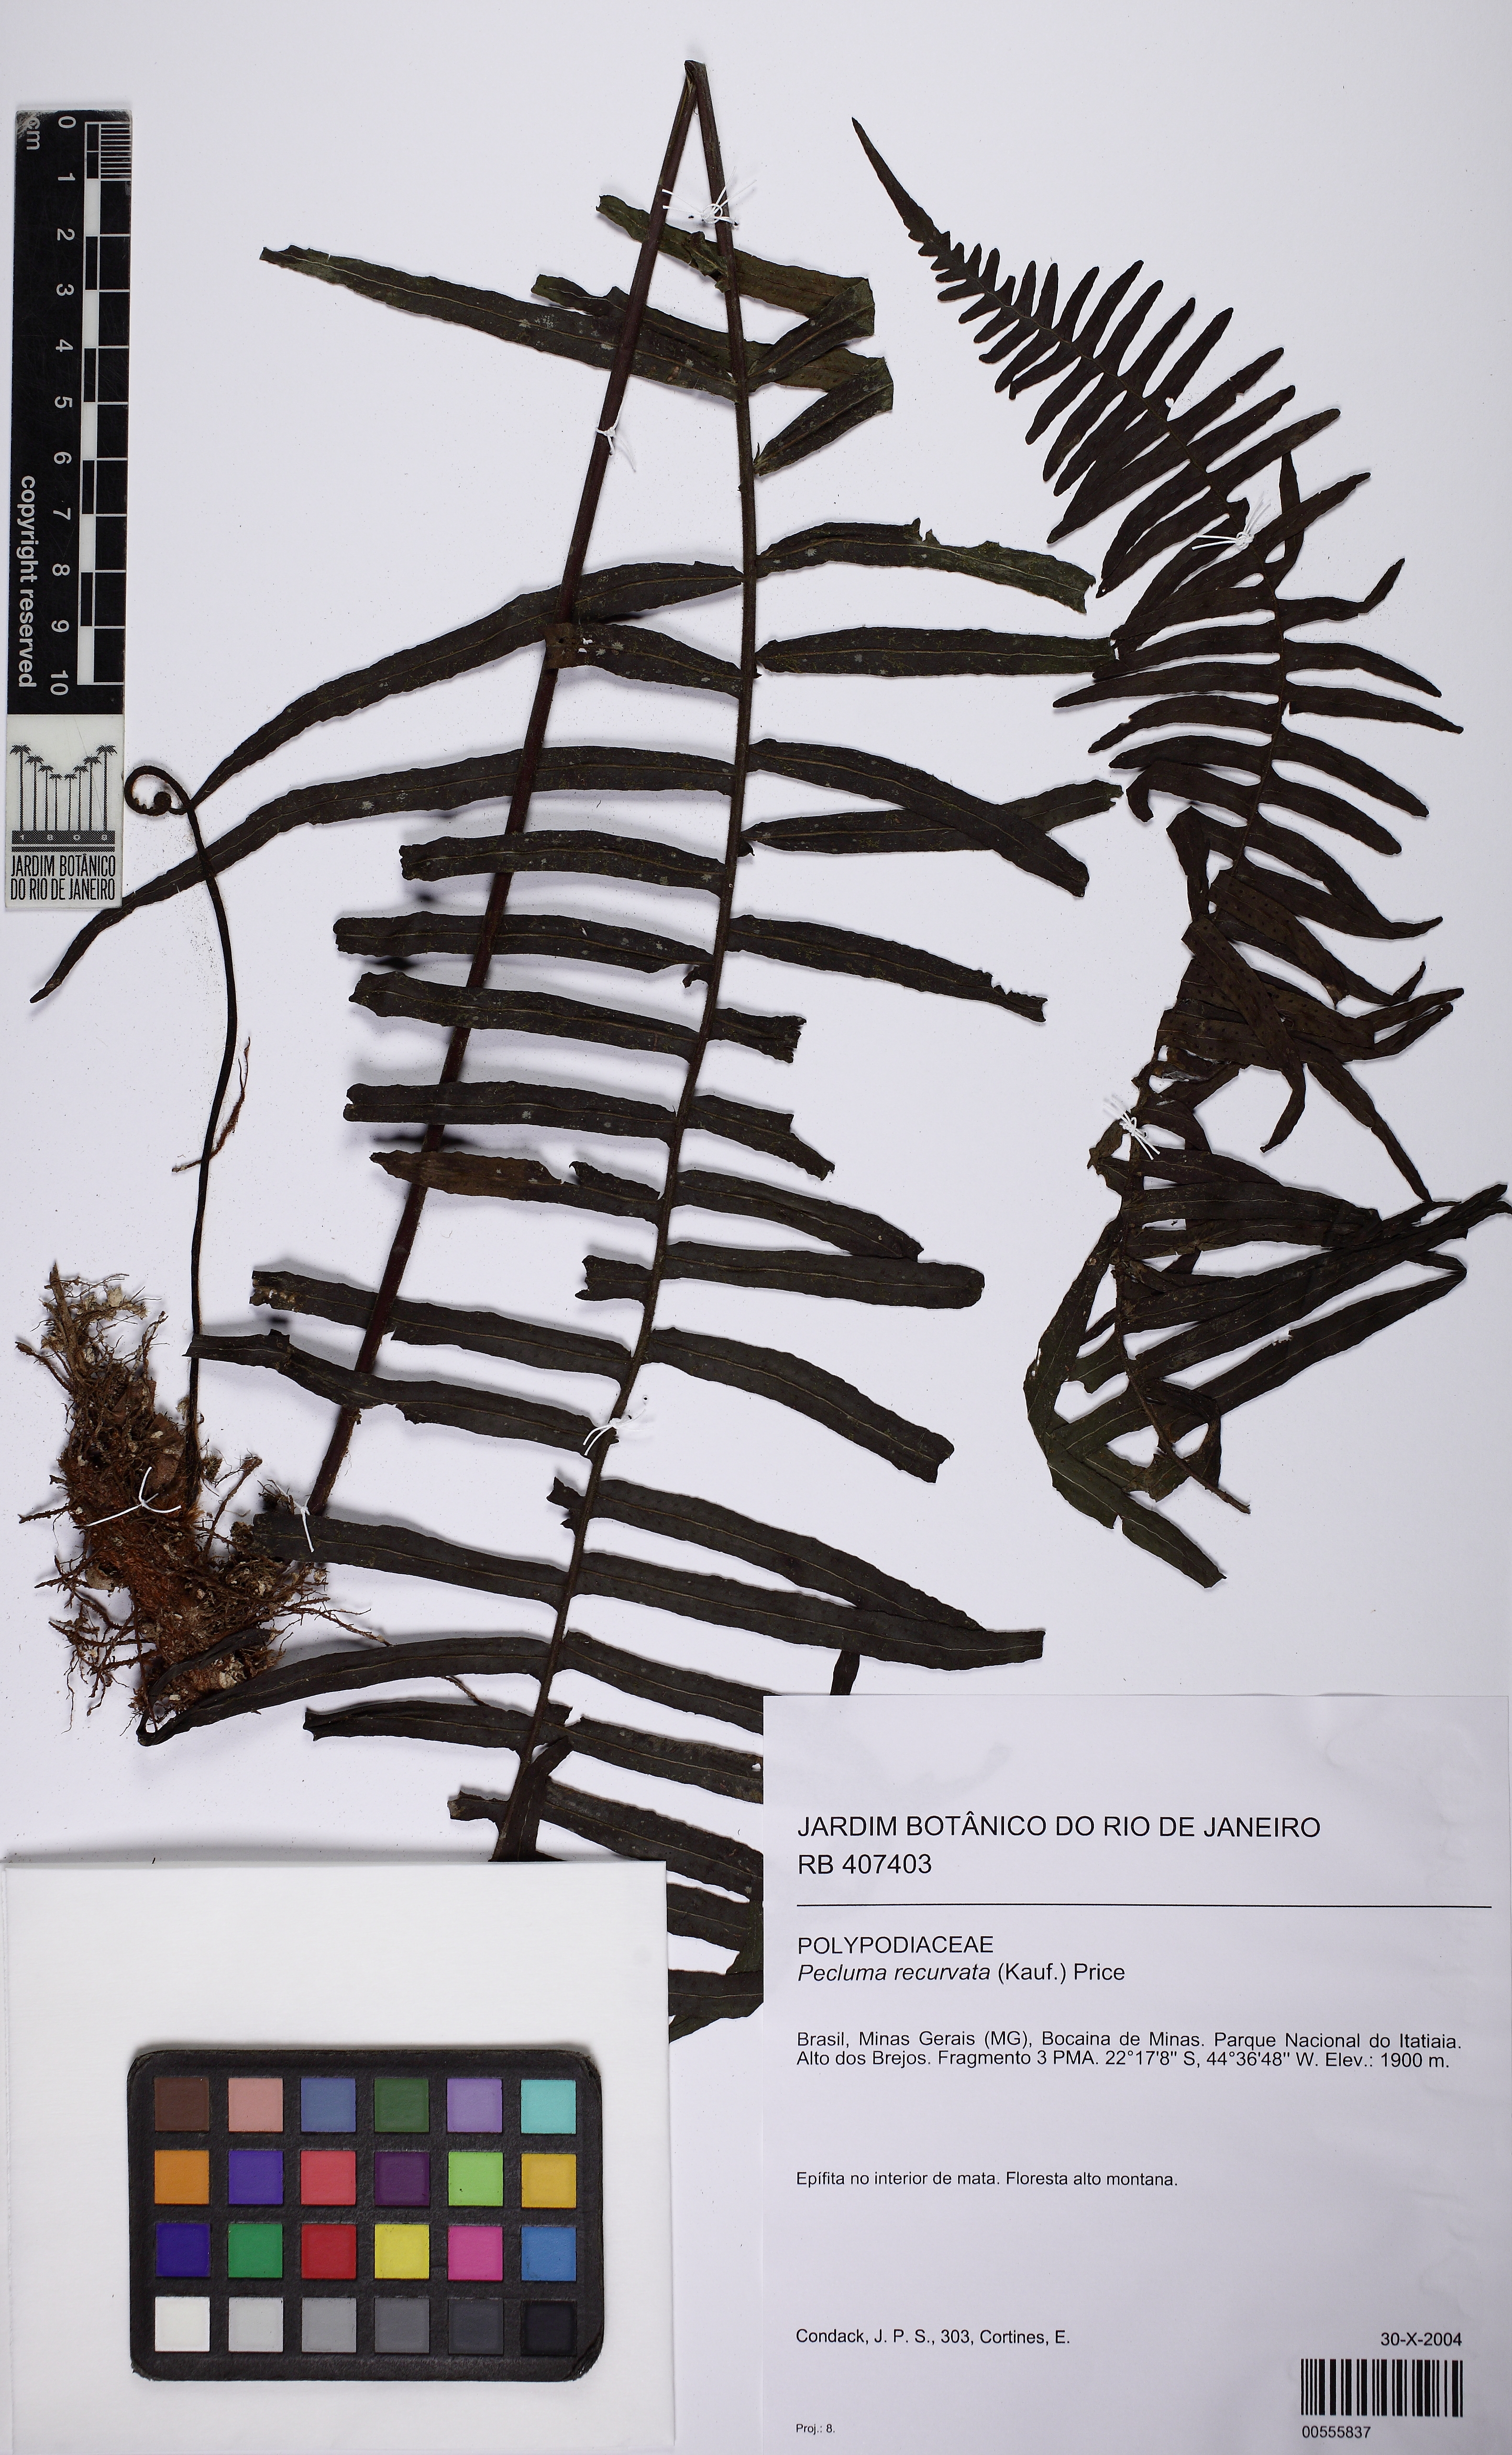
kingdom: Plantae
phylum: Tracheophyta
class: Polypodiopsida
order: Polypodiales
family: Polypodiaceae
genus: Pecluma
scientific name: Pecluma recurvata
